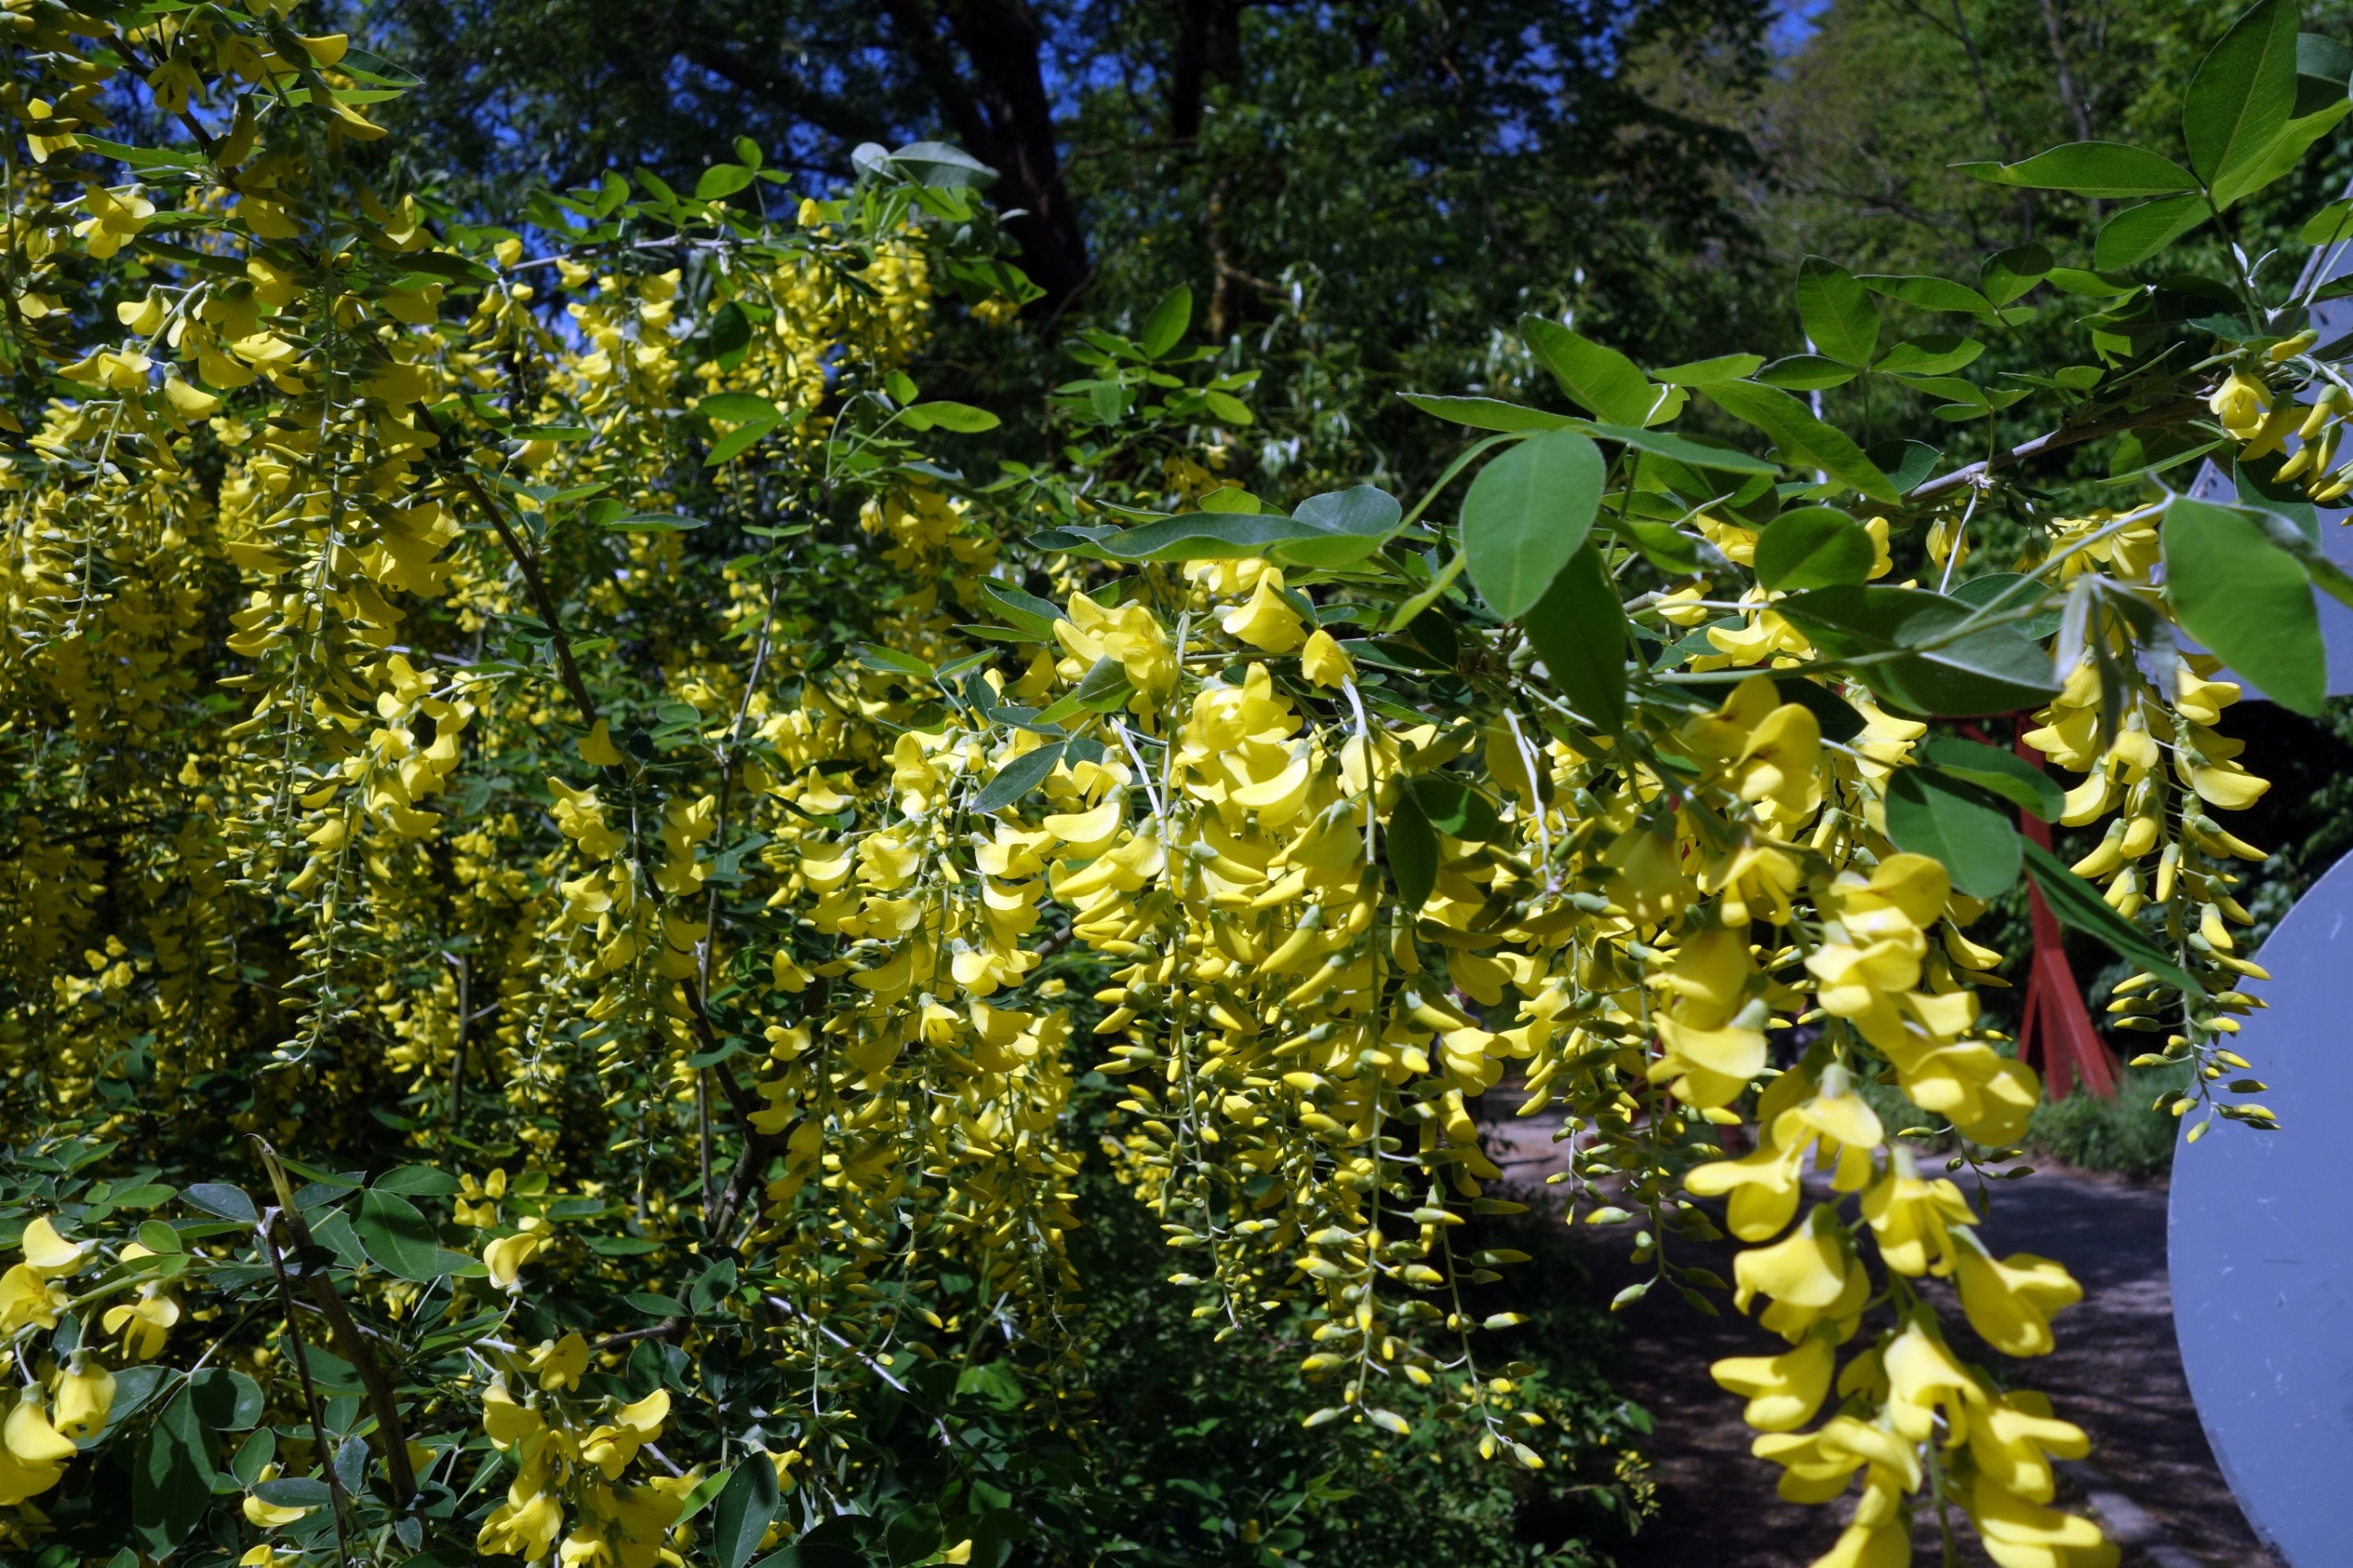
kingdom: Plantae
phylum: Tracheophyta
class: Magnoliopsida
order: Fabales
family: Fabaceae
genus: Laburnum
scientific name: Laburnum anagyroides
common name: Guldregn
